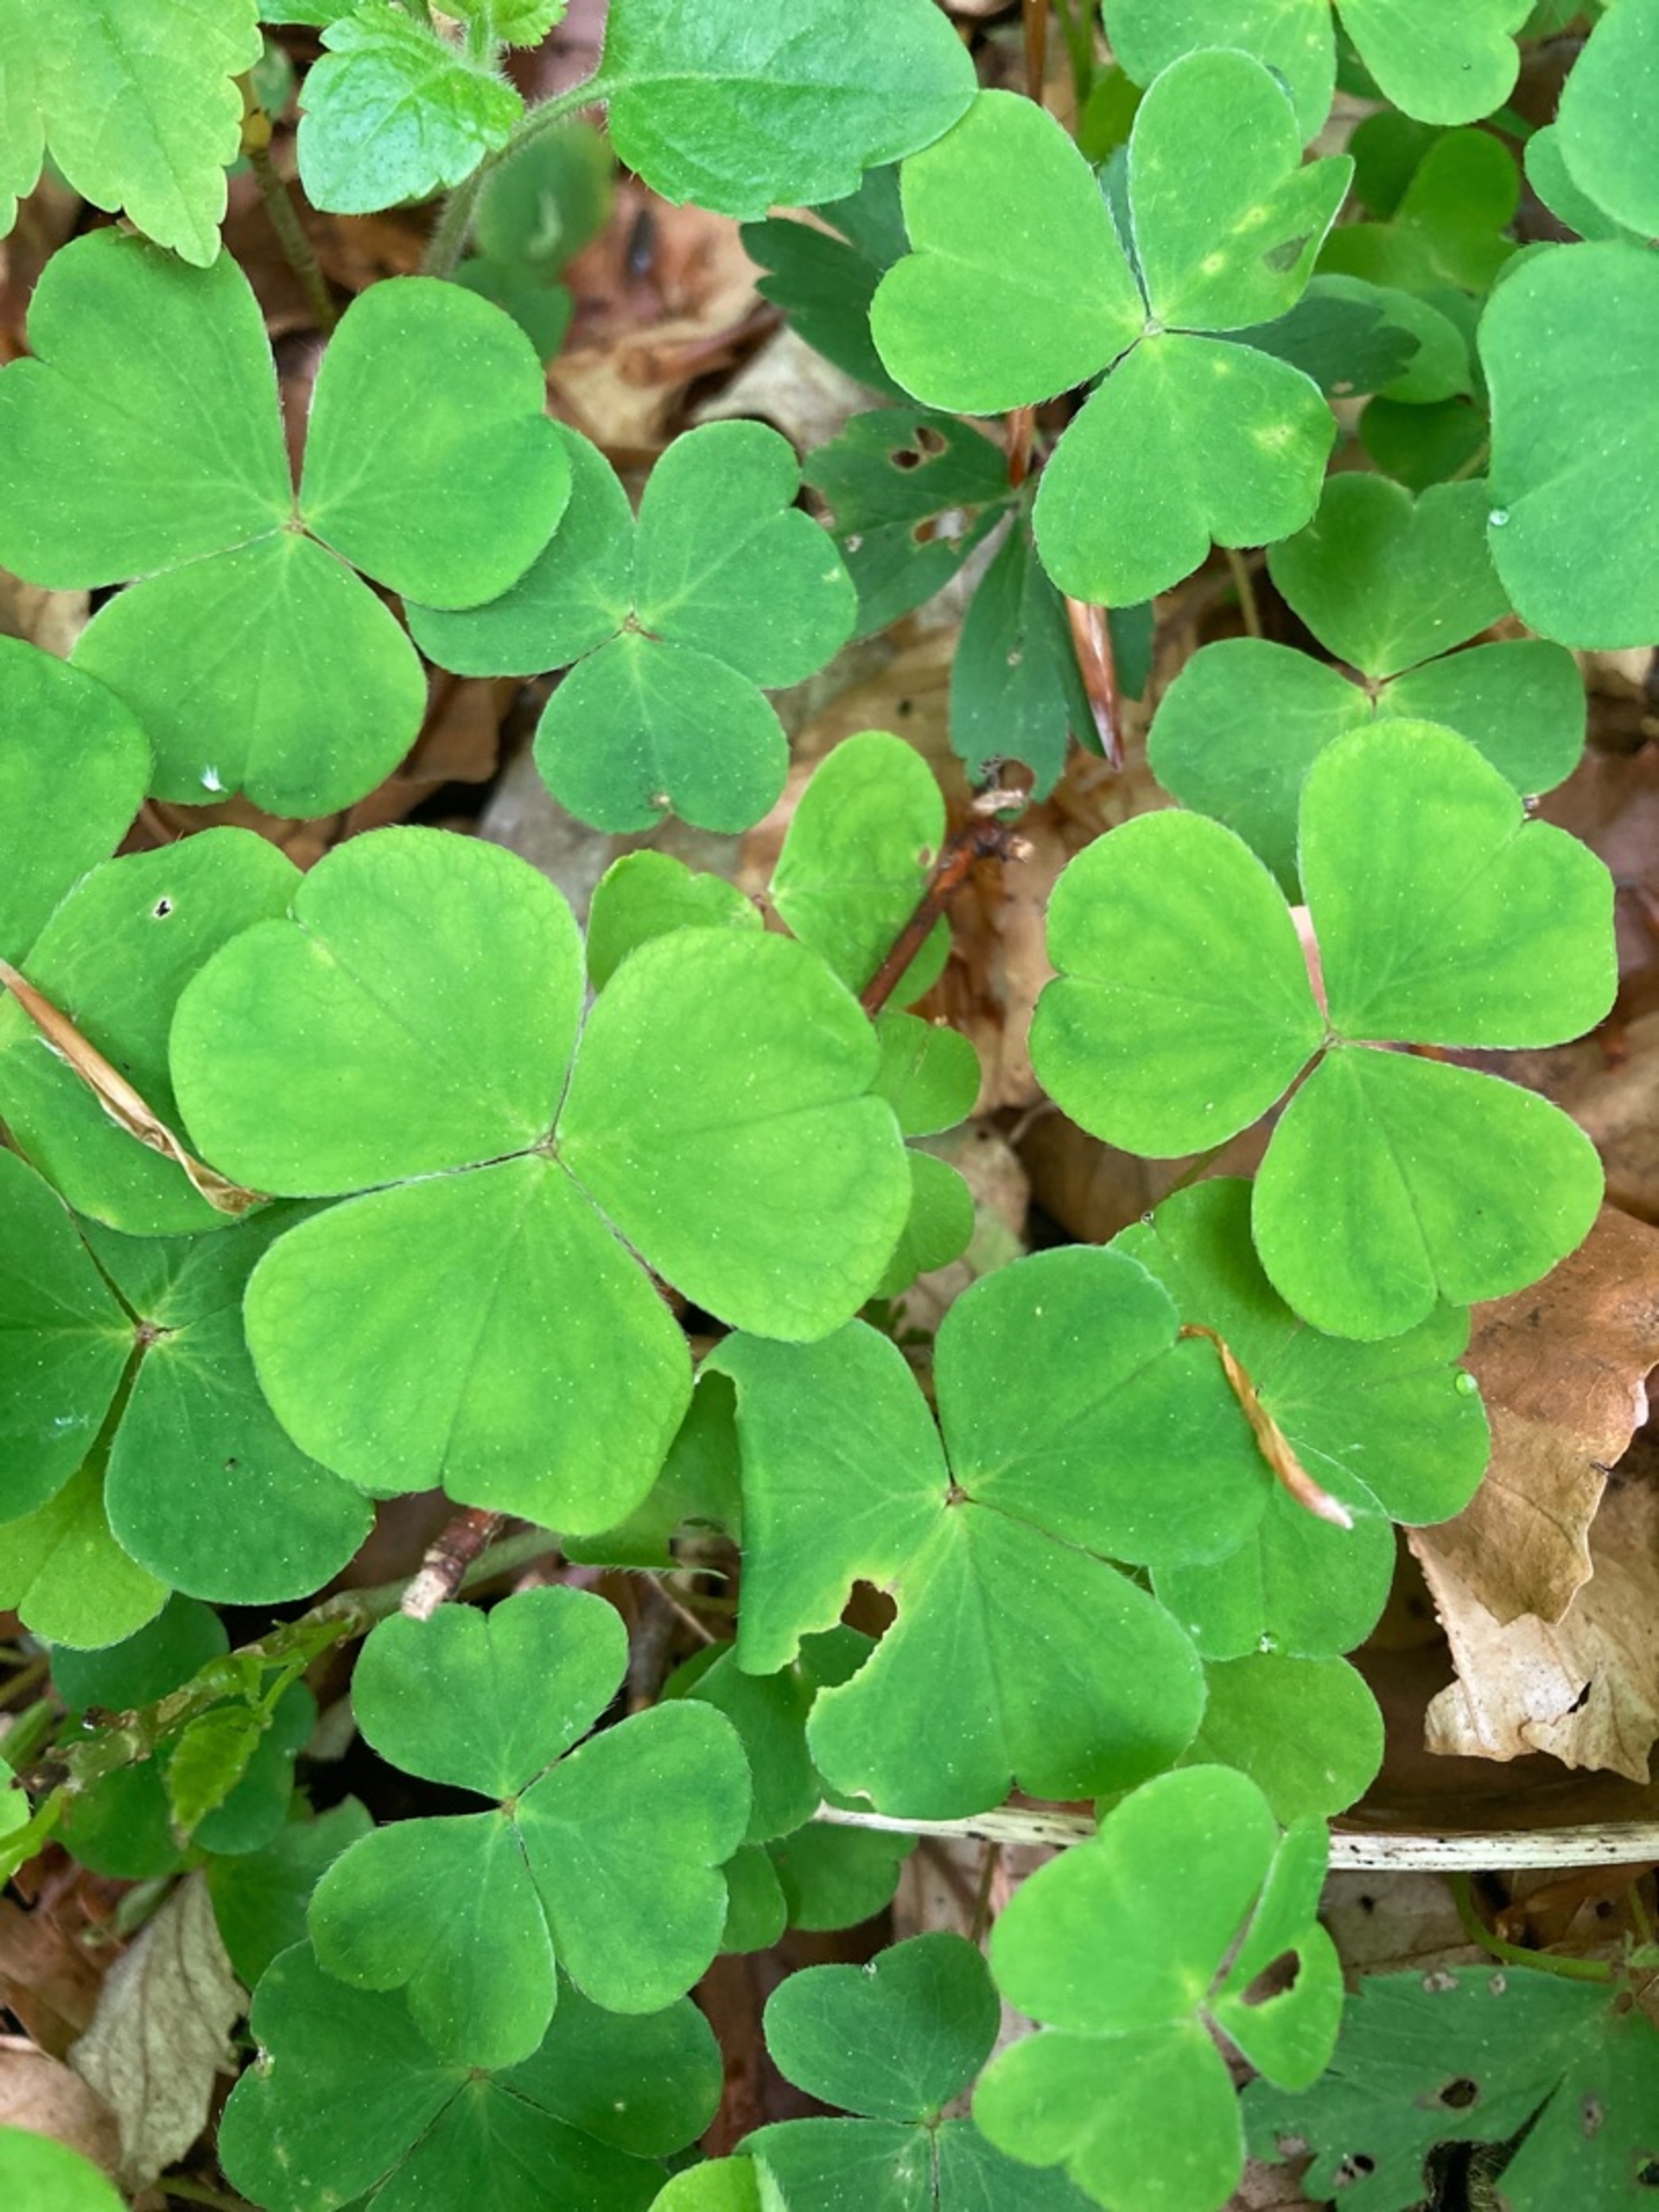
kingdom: Plantae
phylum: Tracheophyta
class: Magnoliopsida
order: Oxalidales
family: Oxalidaceae
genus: Oxalis
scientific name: Oxalis acetosella
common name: Skovsyre
